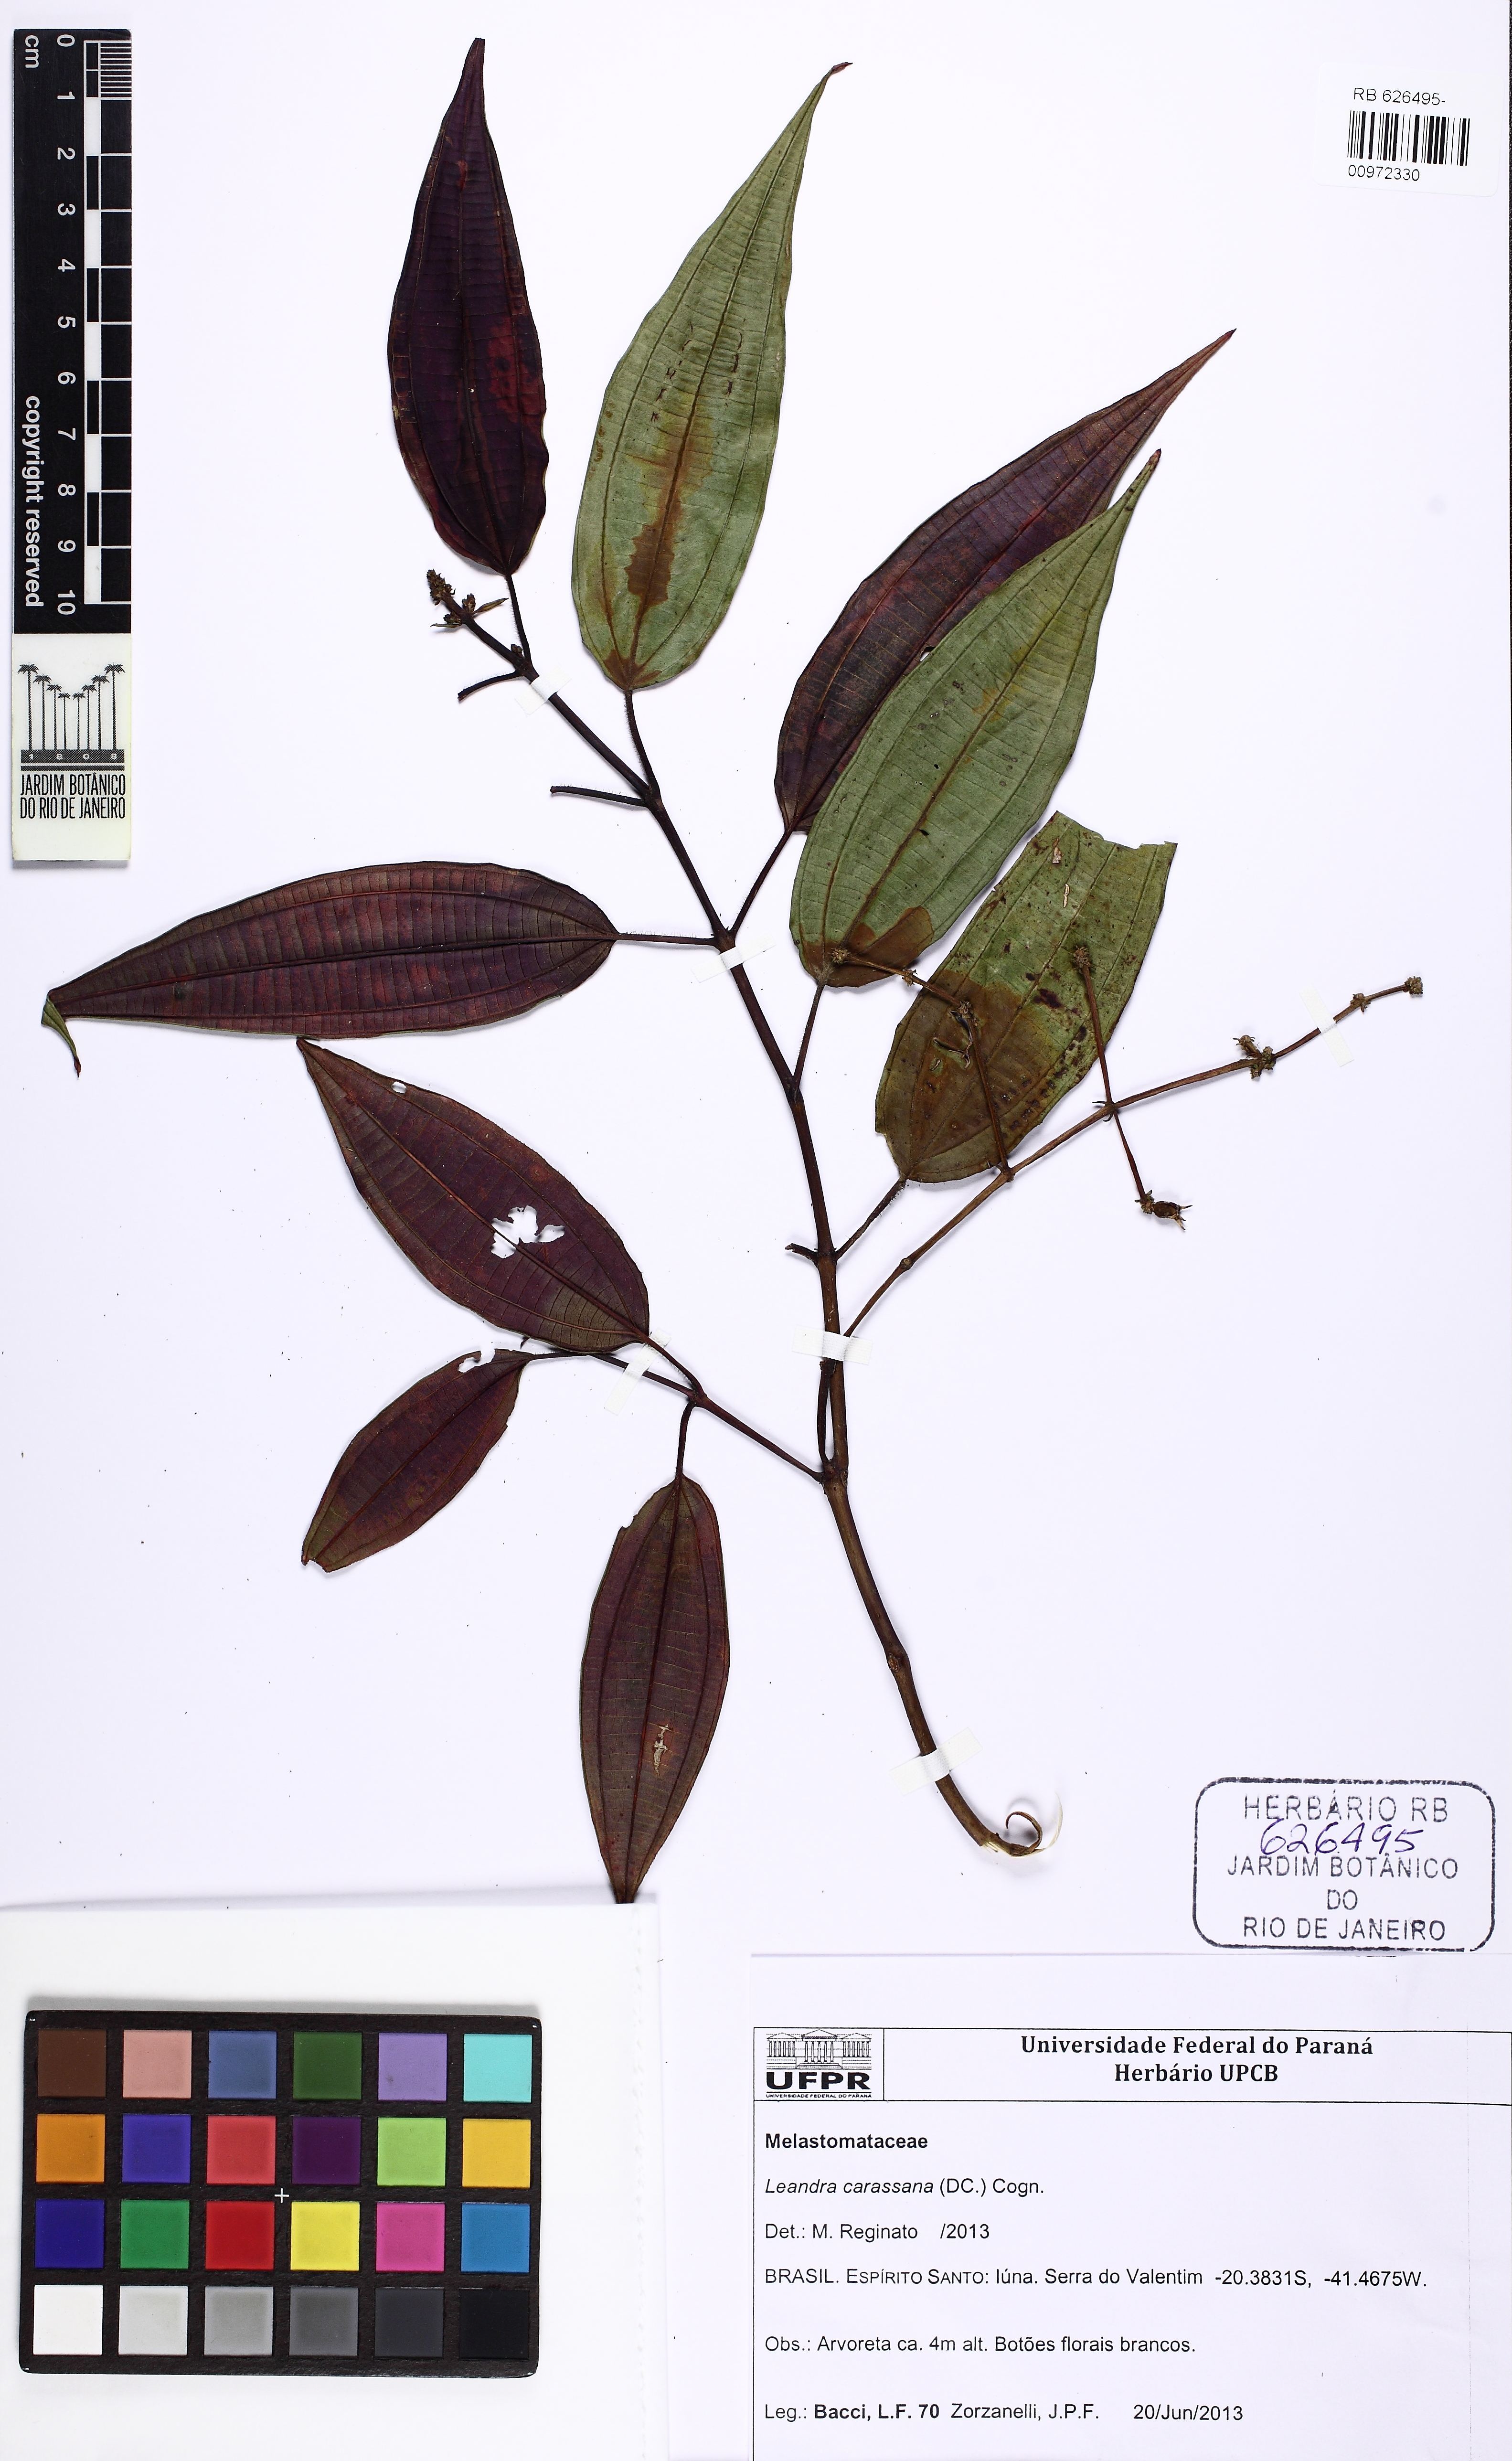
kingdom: Plantae
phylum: Tracheophyta
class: Magnoliopsida
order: Myrtales
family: Melastomataceae
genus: Miconia
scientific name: Miconia sublanata
